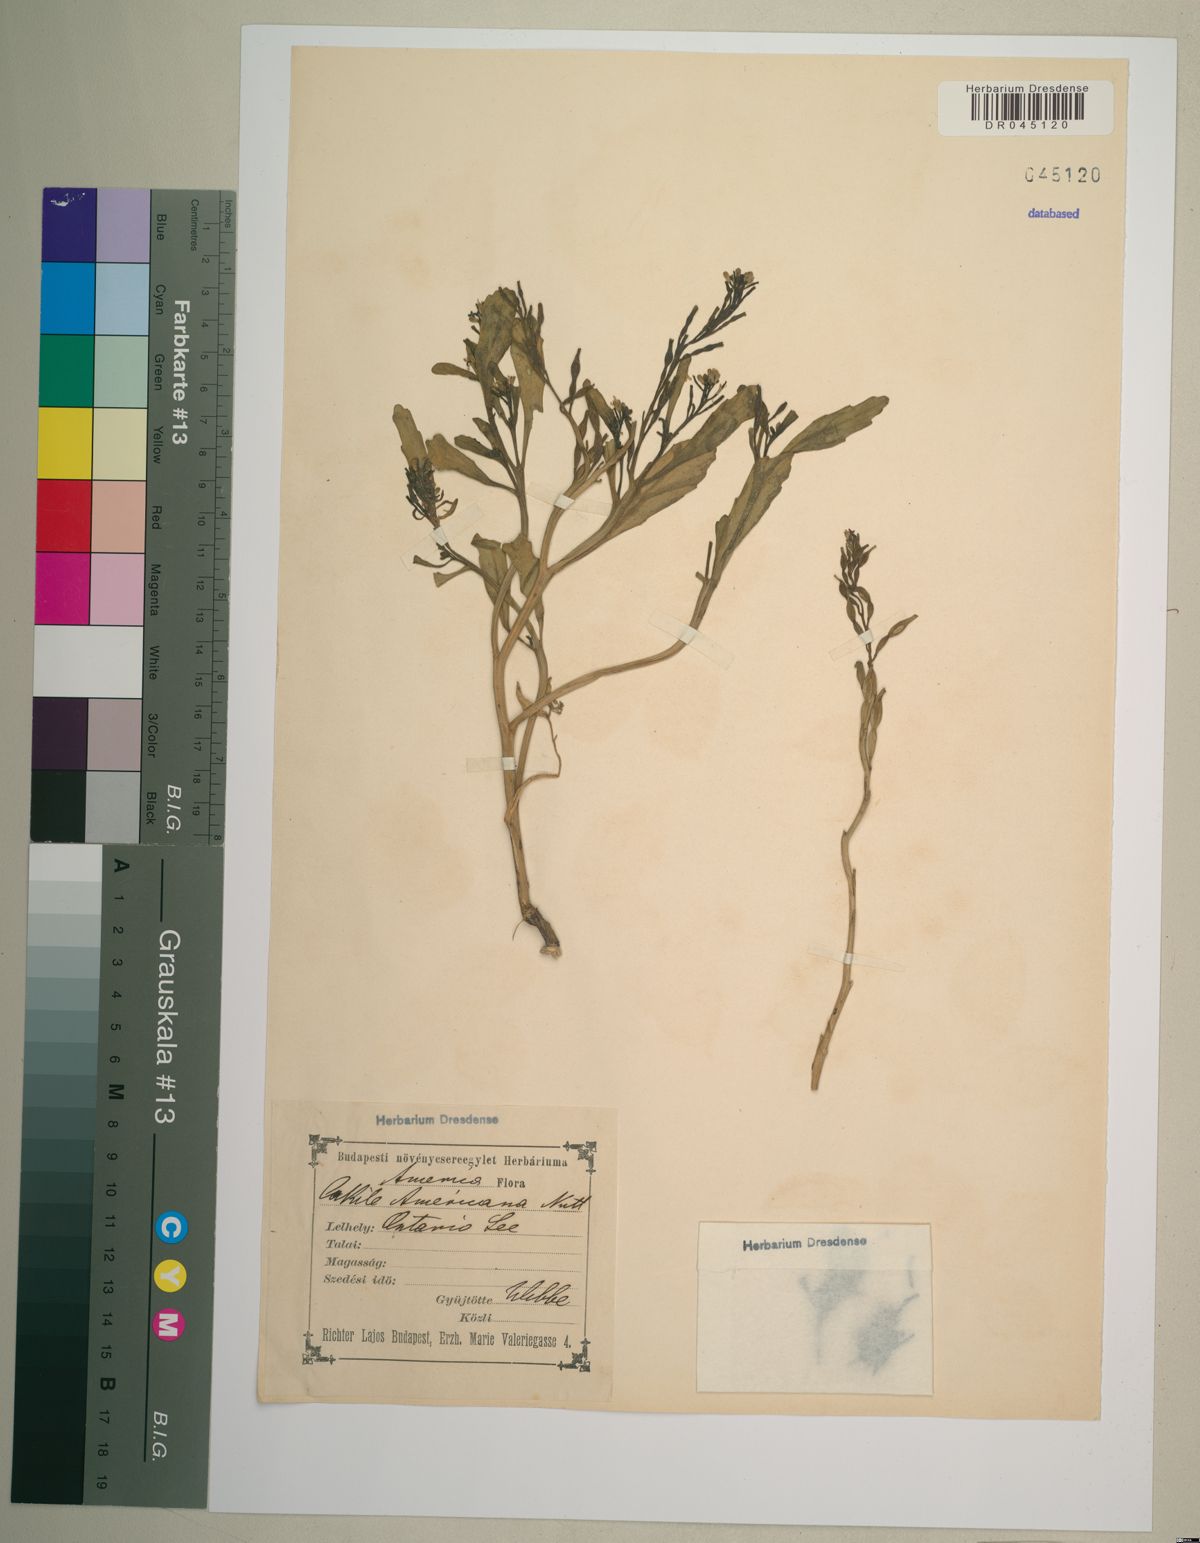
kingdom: Plantae
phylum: Tracheophyta
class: Magnoliopsida
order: Brassicales
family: Brassicaceae
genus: Cakile
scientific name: Cakile edentula
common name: American sea rocket
